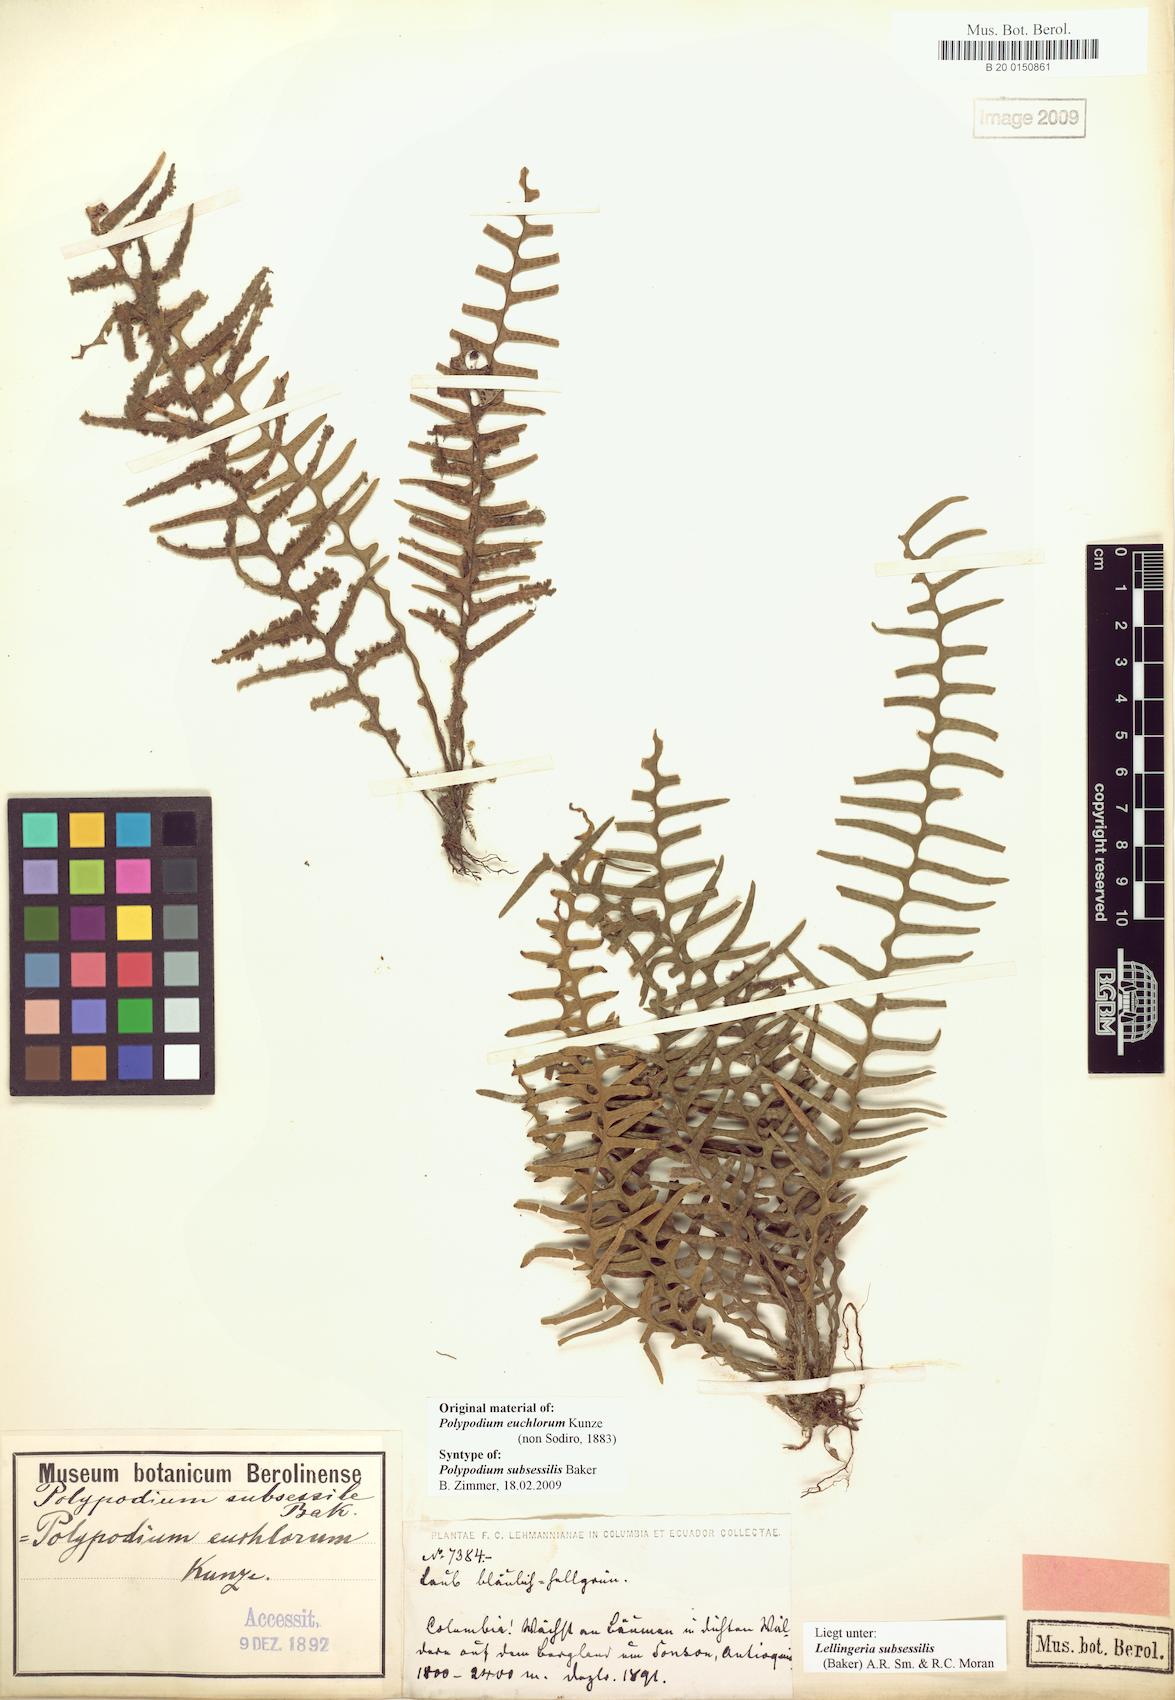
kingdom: Plantae
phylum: Tracheophyta
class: Polypodiopsida
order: Polypodiales
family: Polypodiaceae
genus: Lellingeria
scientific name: Lellingeria subsessilis
